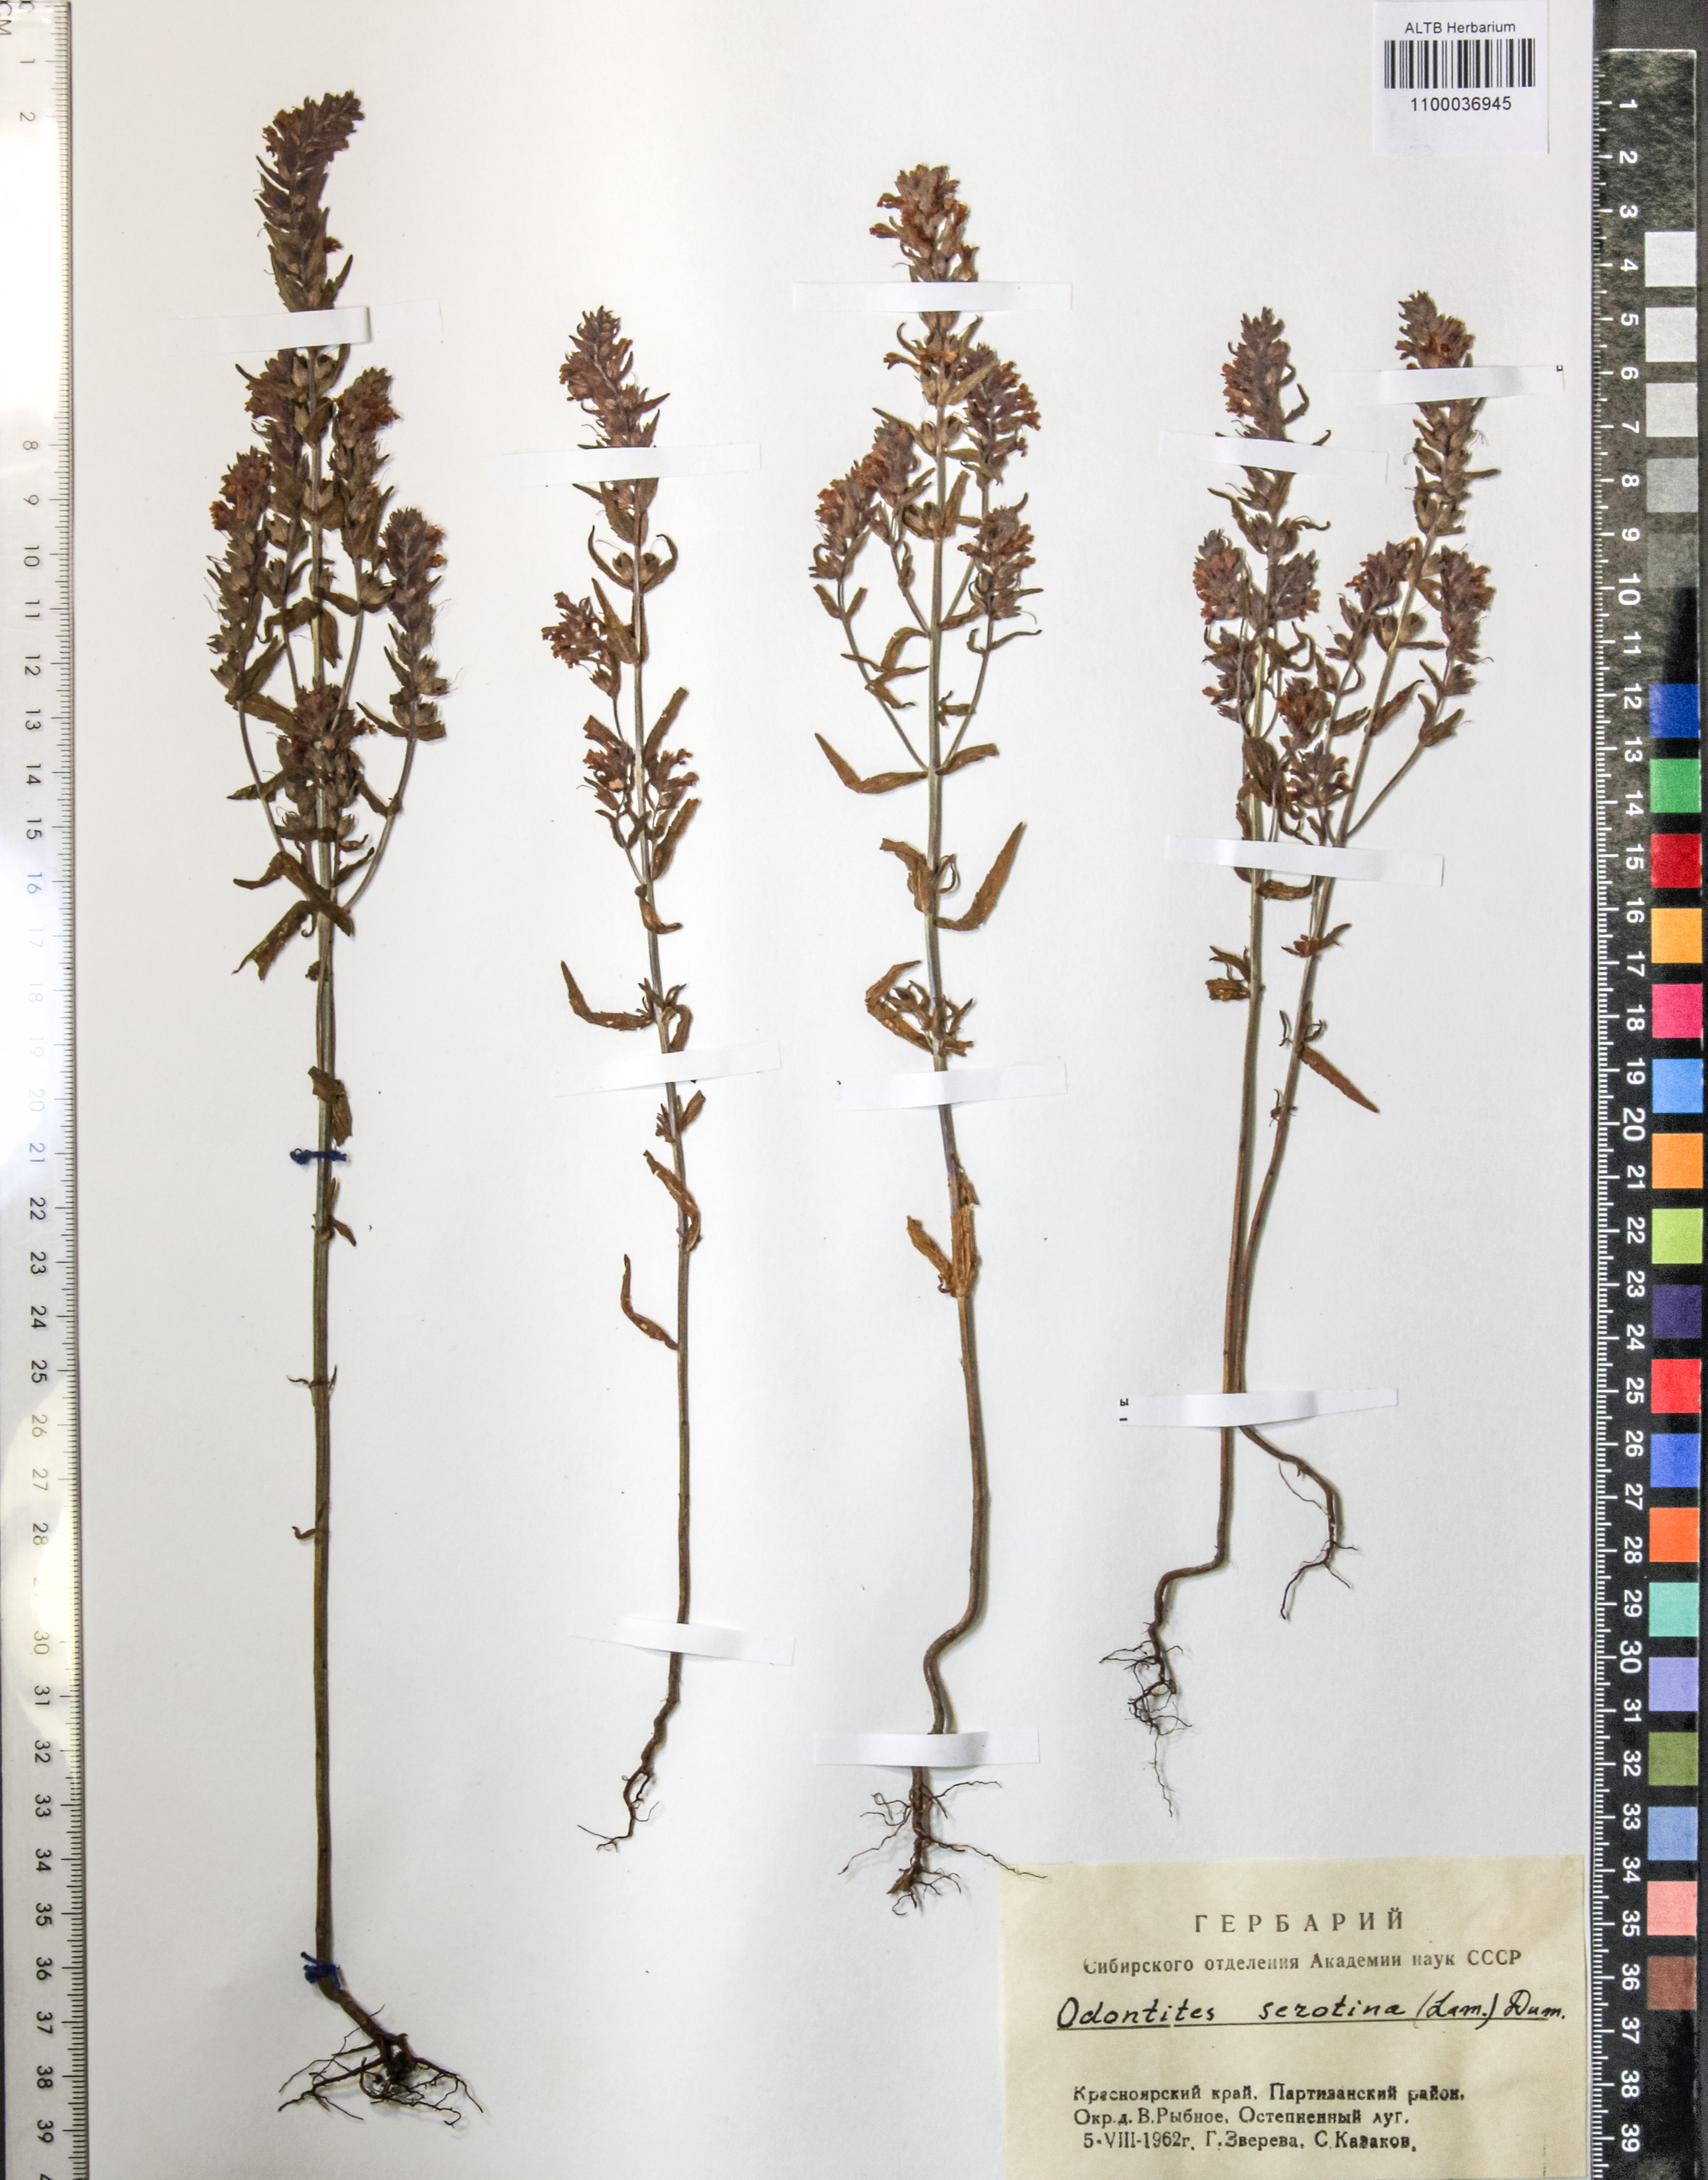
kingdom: Plantae
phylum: Tracheophyta
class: Magnoliopsida
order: Lamiales
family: Orobanchaceae
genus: Odontites
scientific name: Odontites vulgaris
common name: Broomrape
